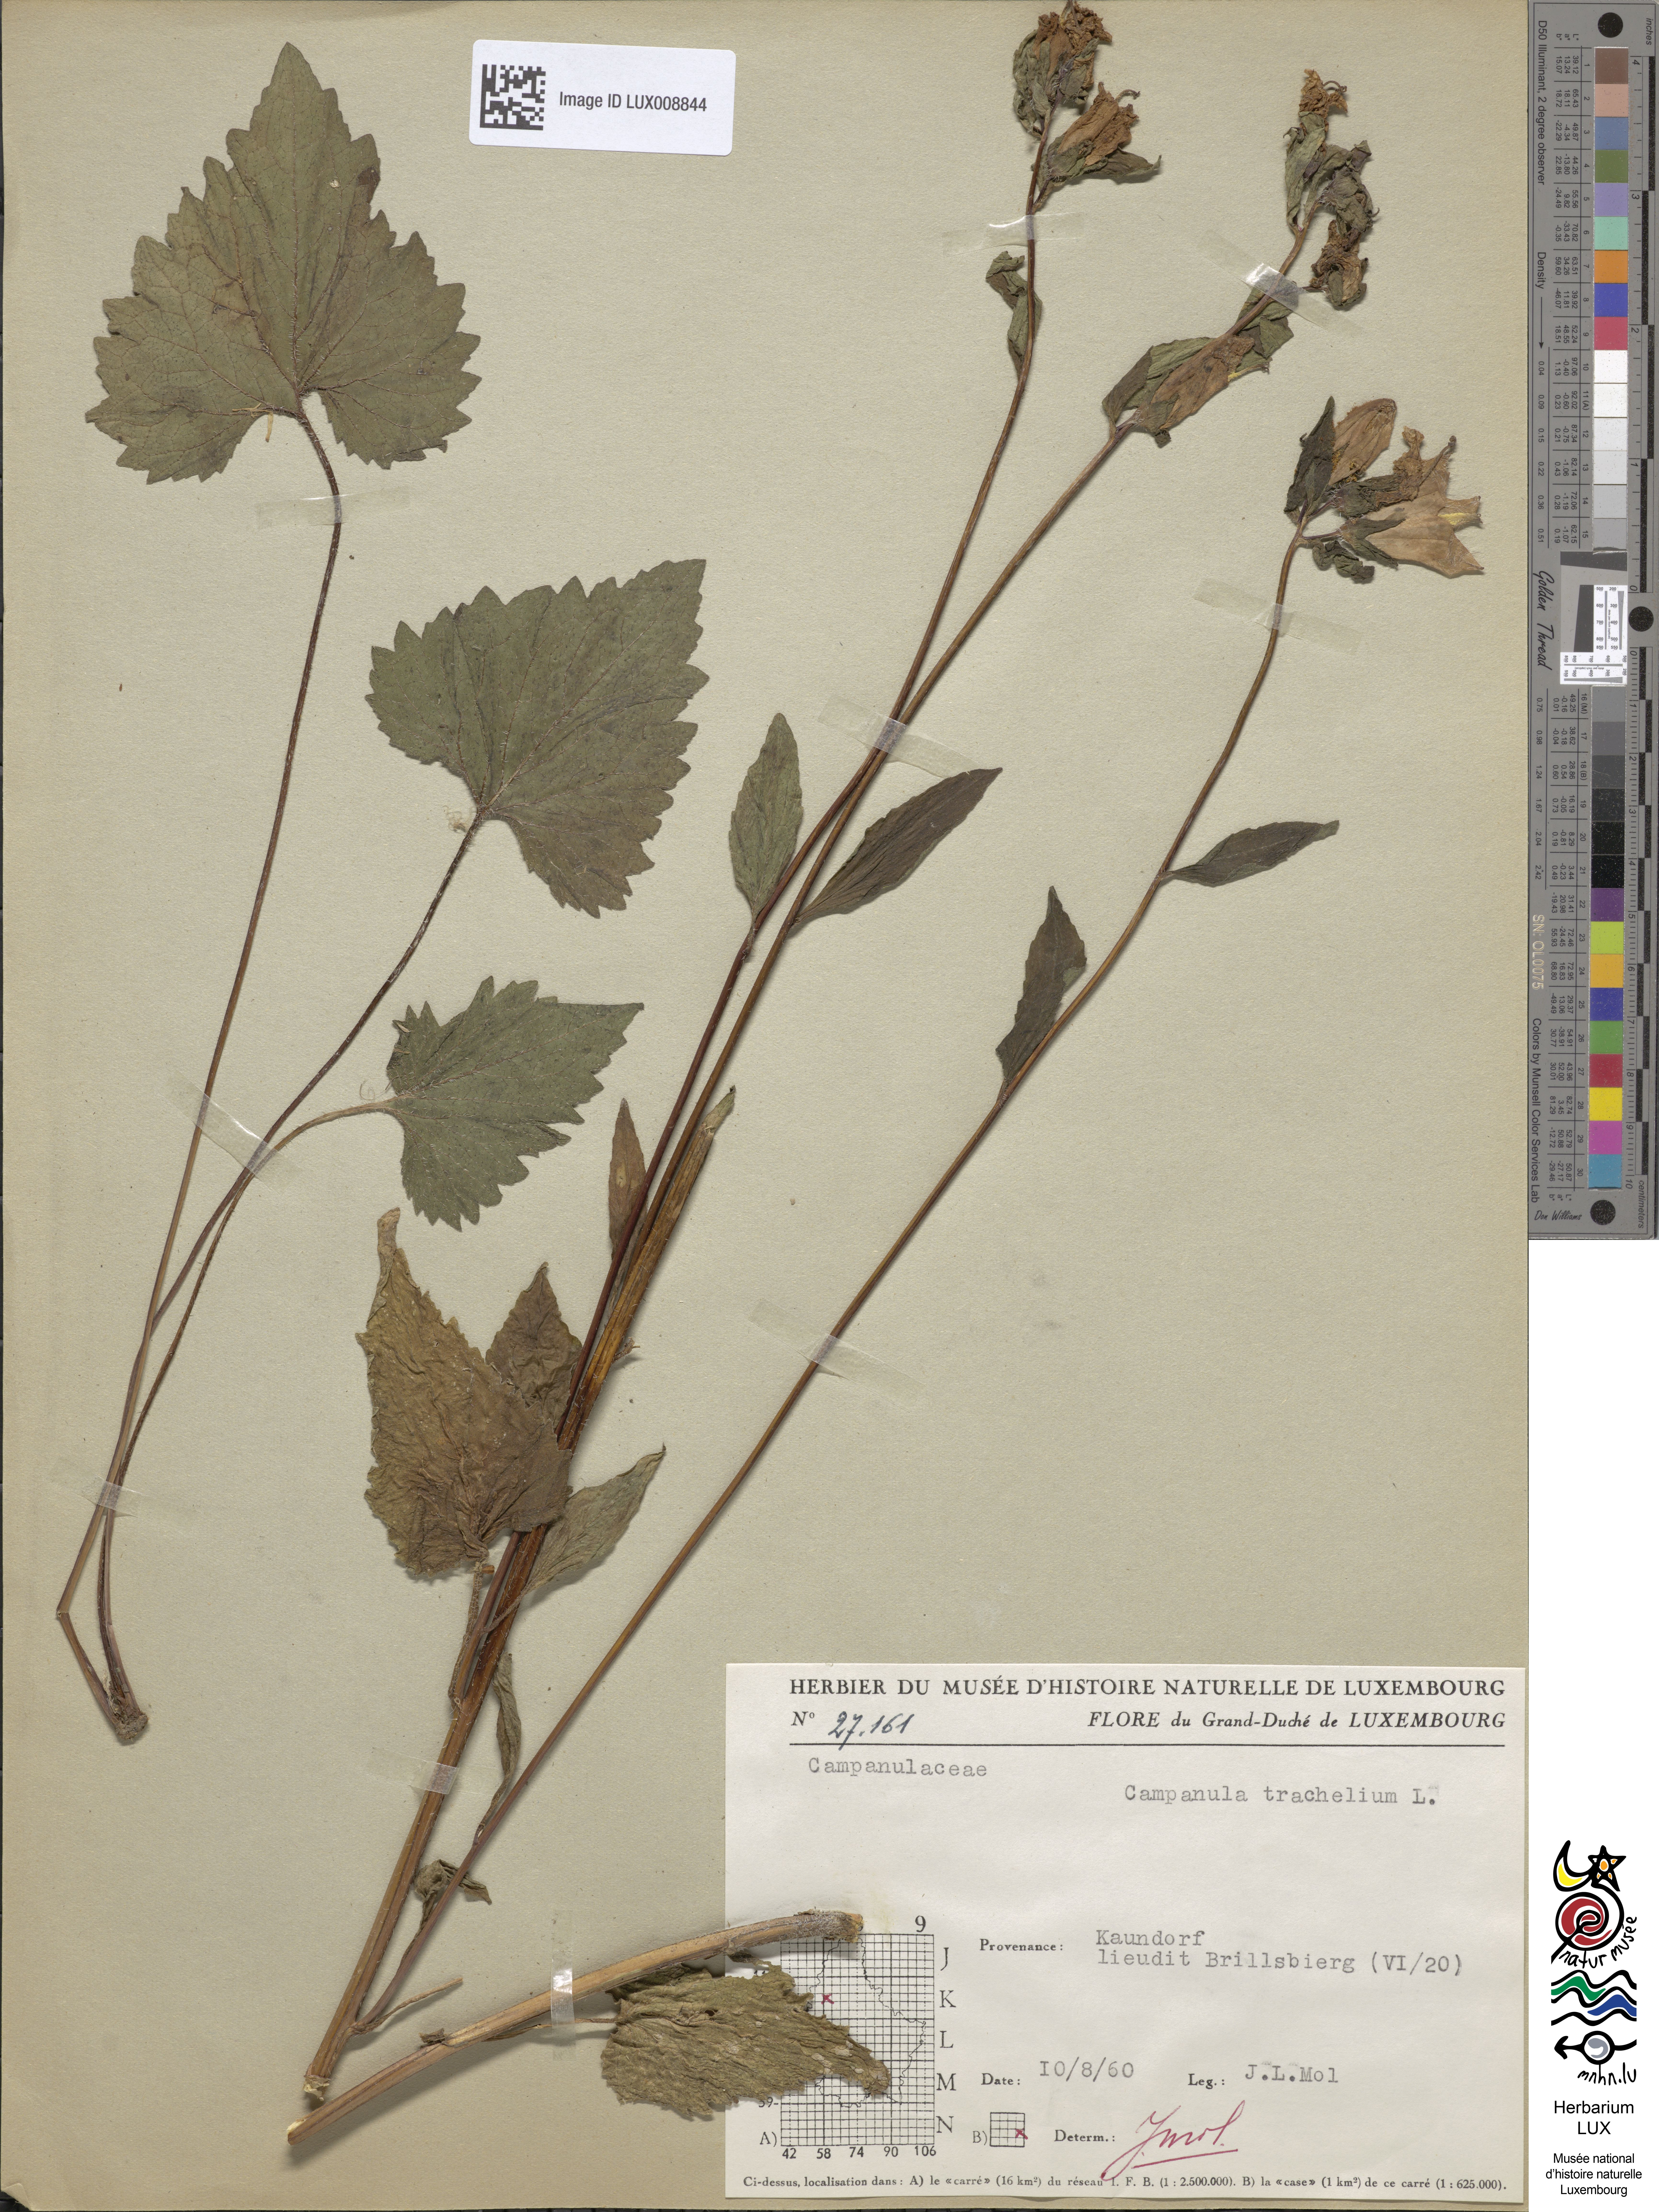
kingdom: Plantae
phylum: Tracheophyta
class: Magnoliopsida
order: Asterales
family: Campanulaceae
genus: Campanula
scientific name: Campanula trachelium
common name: Nettle-leaved bellflower
